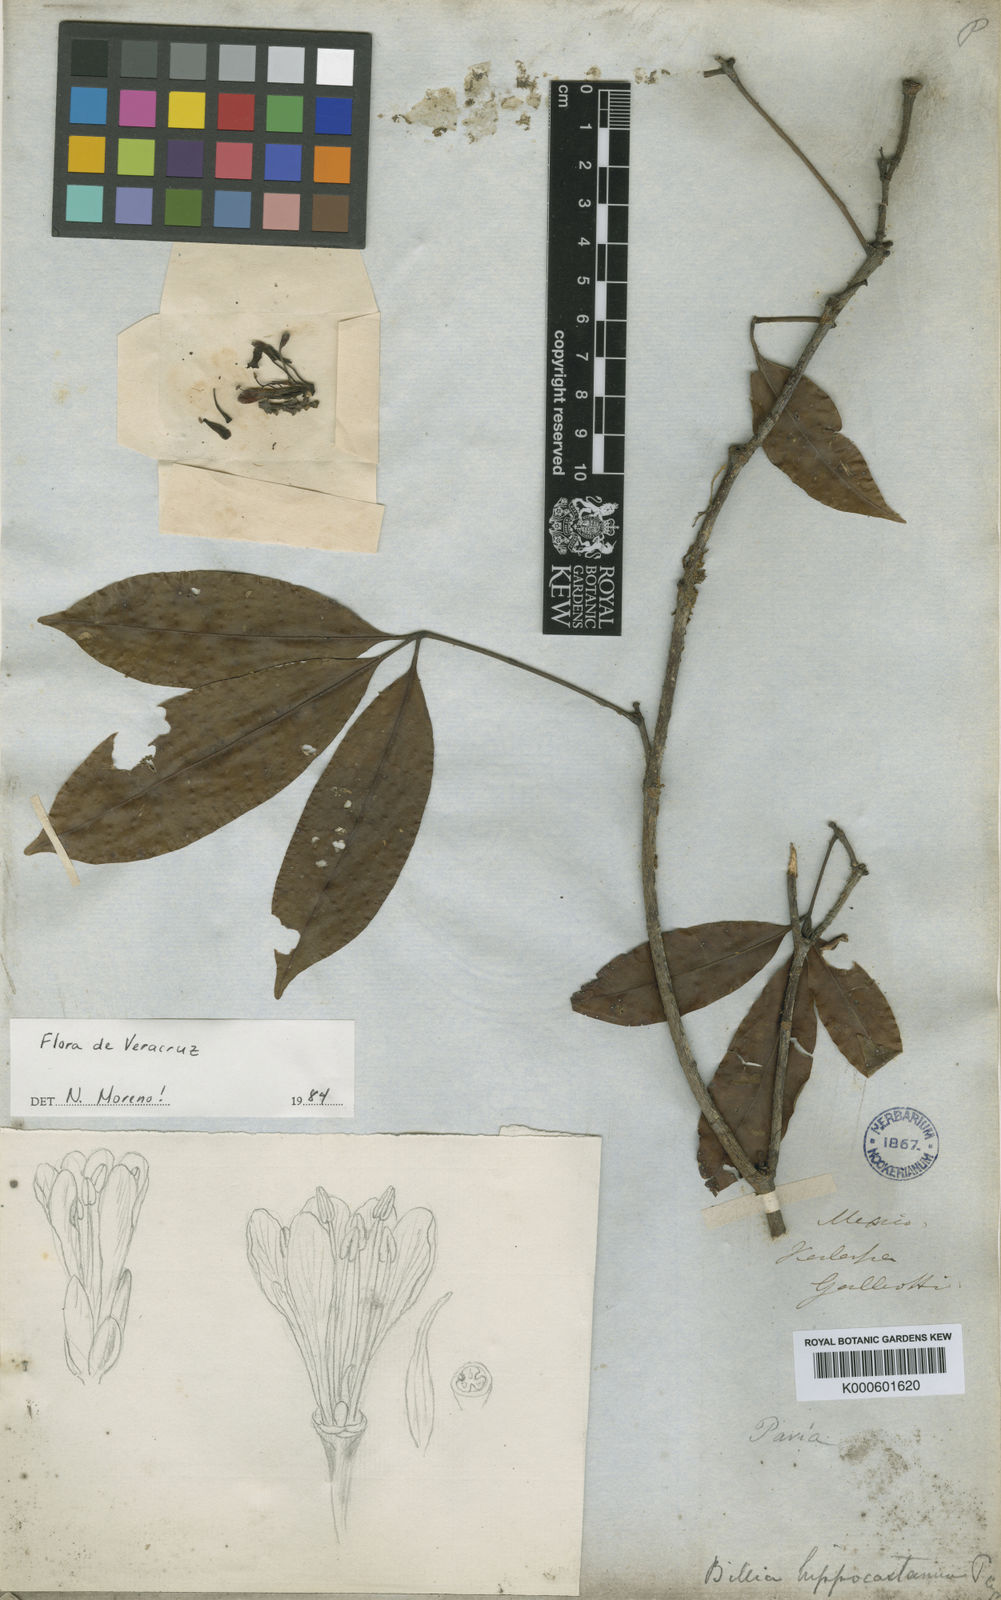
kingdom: Plantae
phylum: Tracheophyta
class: Magnoliopsida
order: Sapindales
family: Sapindaceae
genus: Billia
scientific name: Billia rosea
